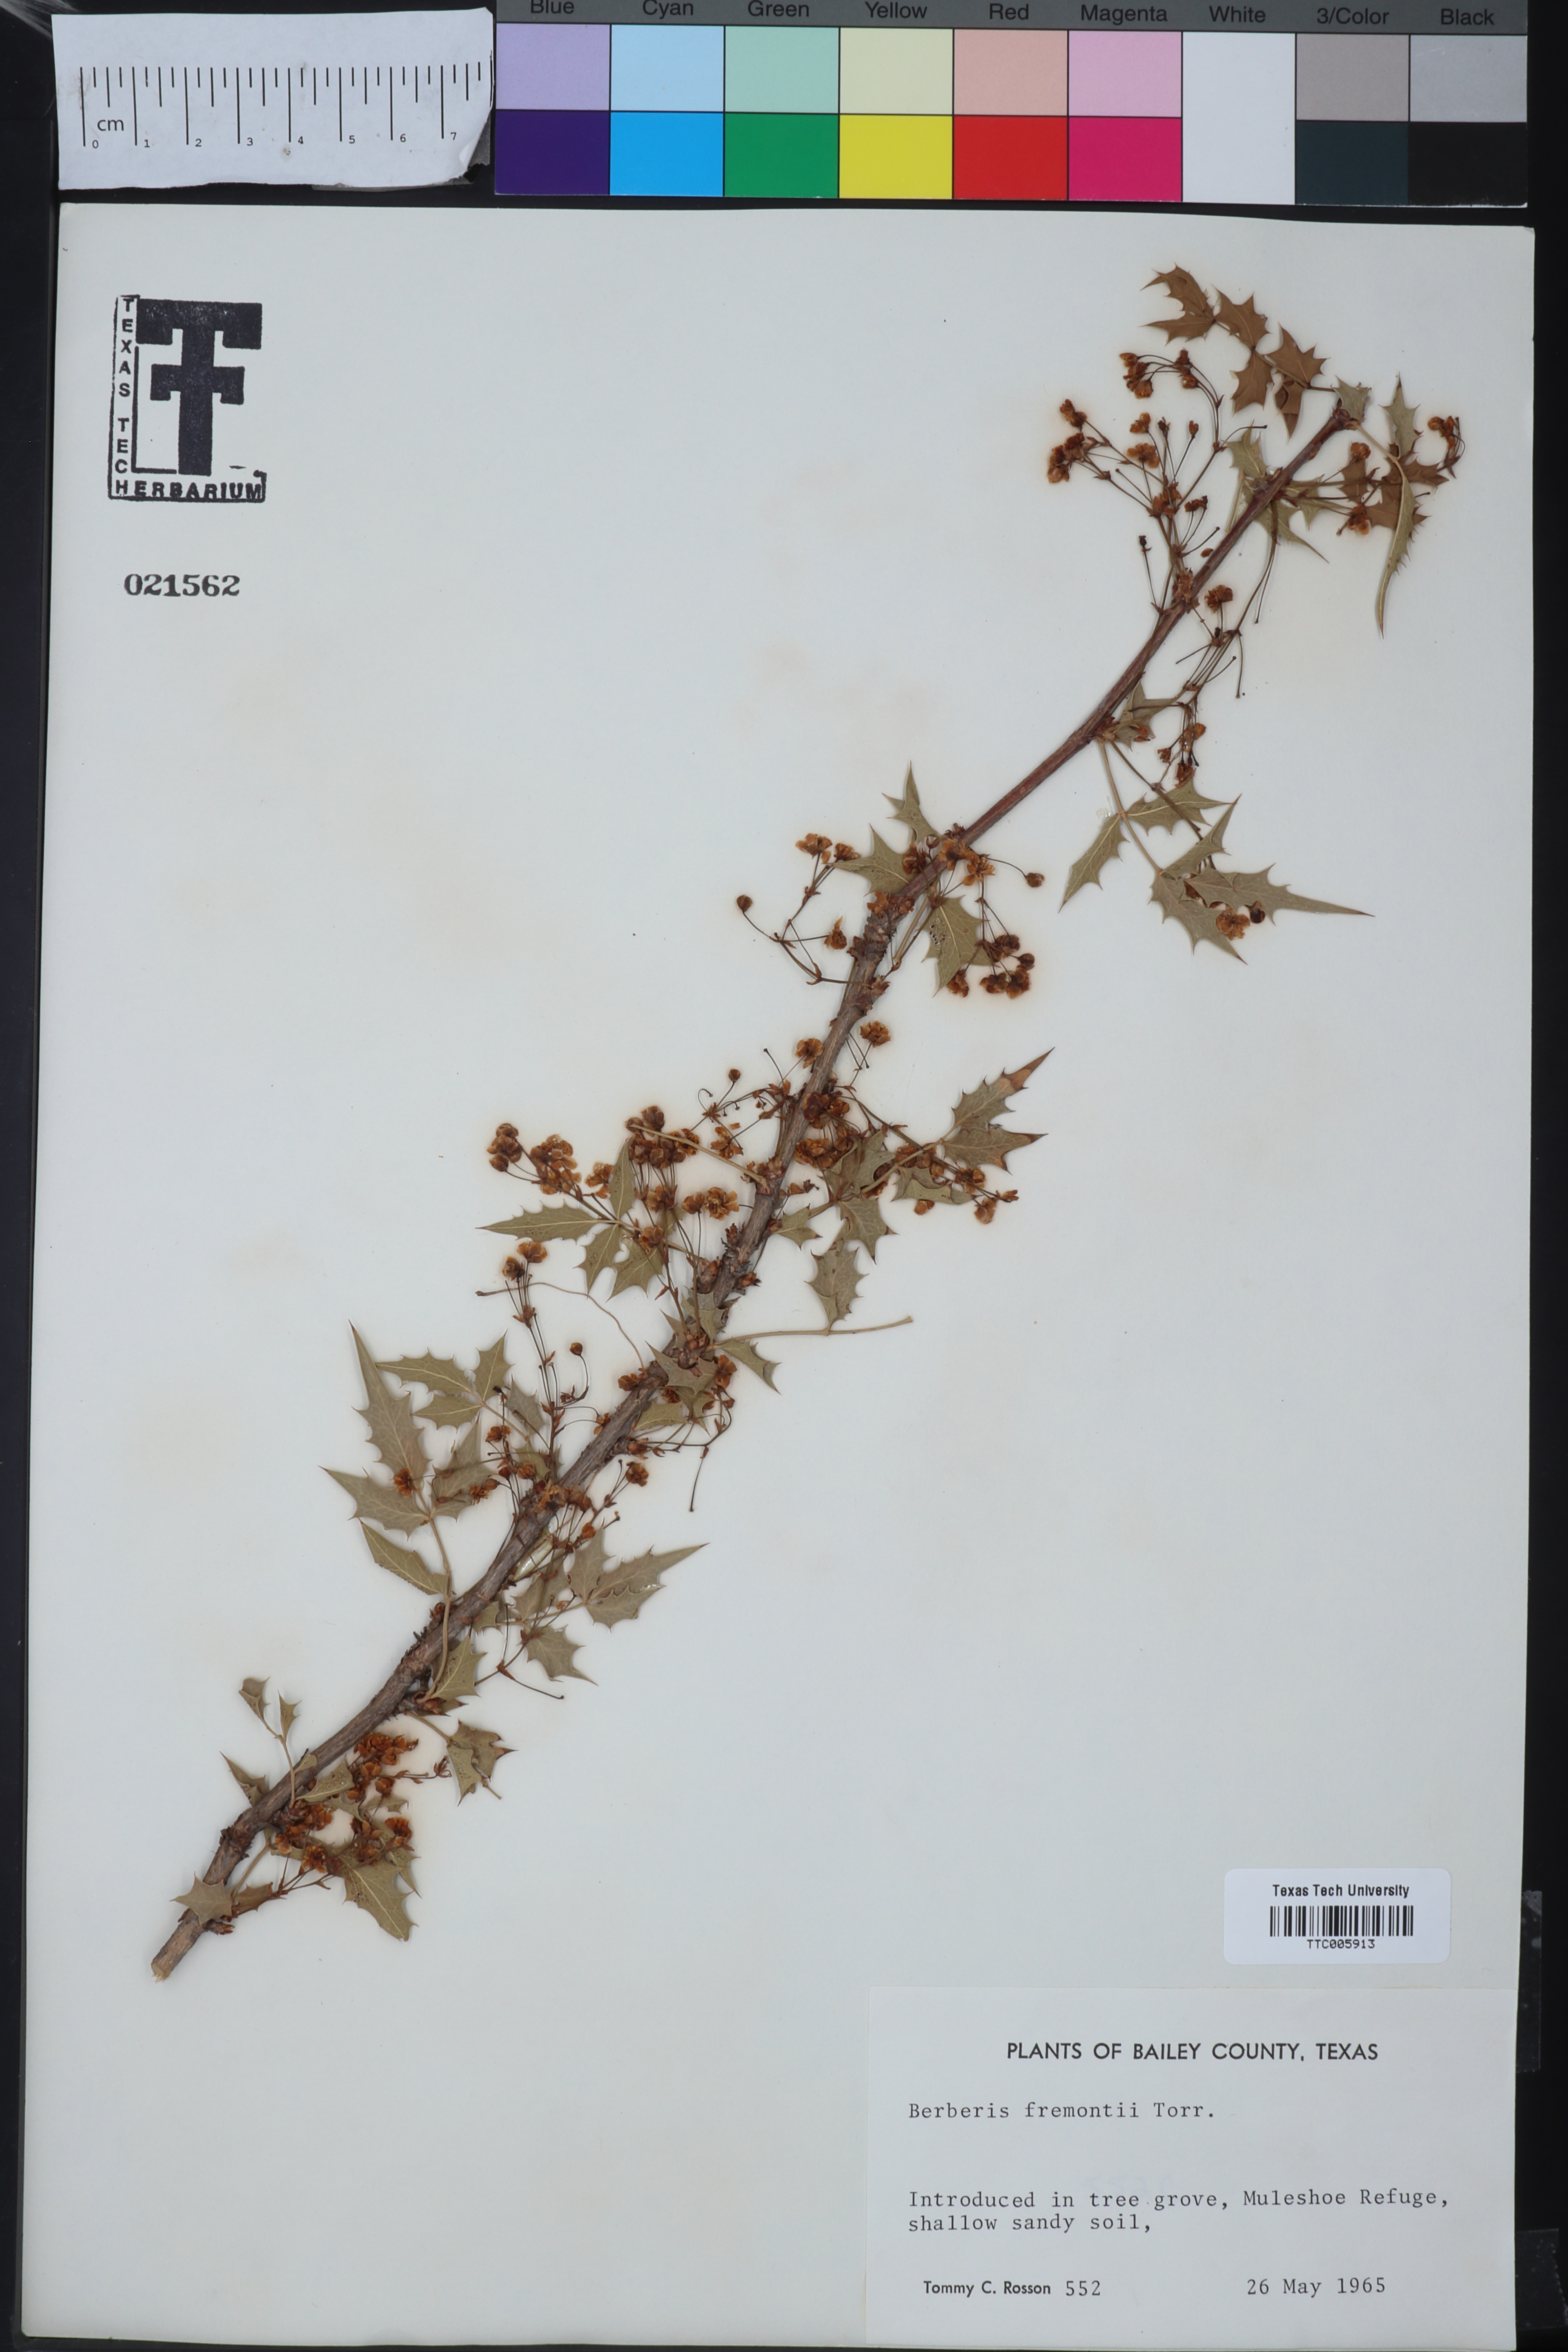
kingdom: Plantae
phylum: Tracheophyta
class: Magnoliopsida
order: Ranunculales
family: Berberidaceae
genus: Alloberberis
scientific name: Alloberberis fremontii
